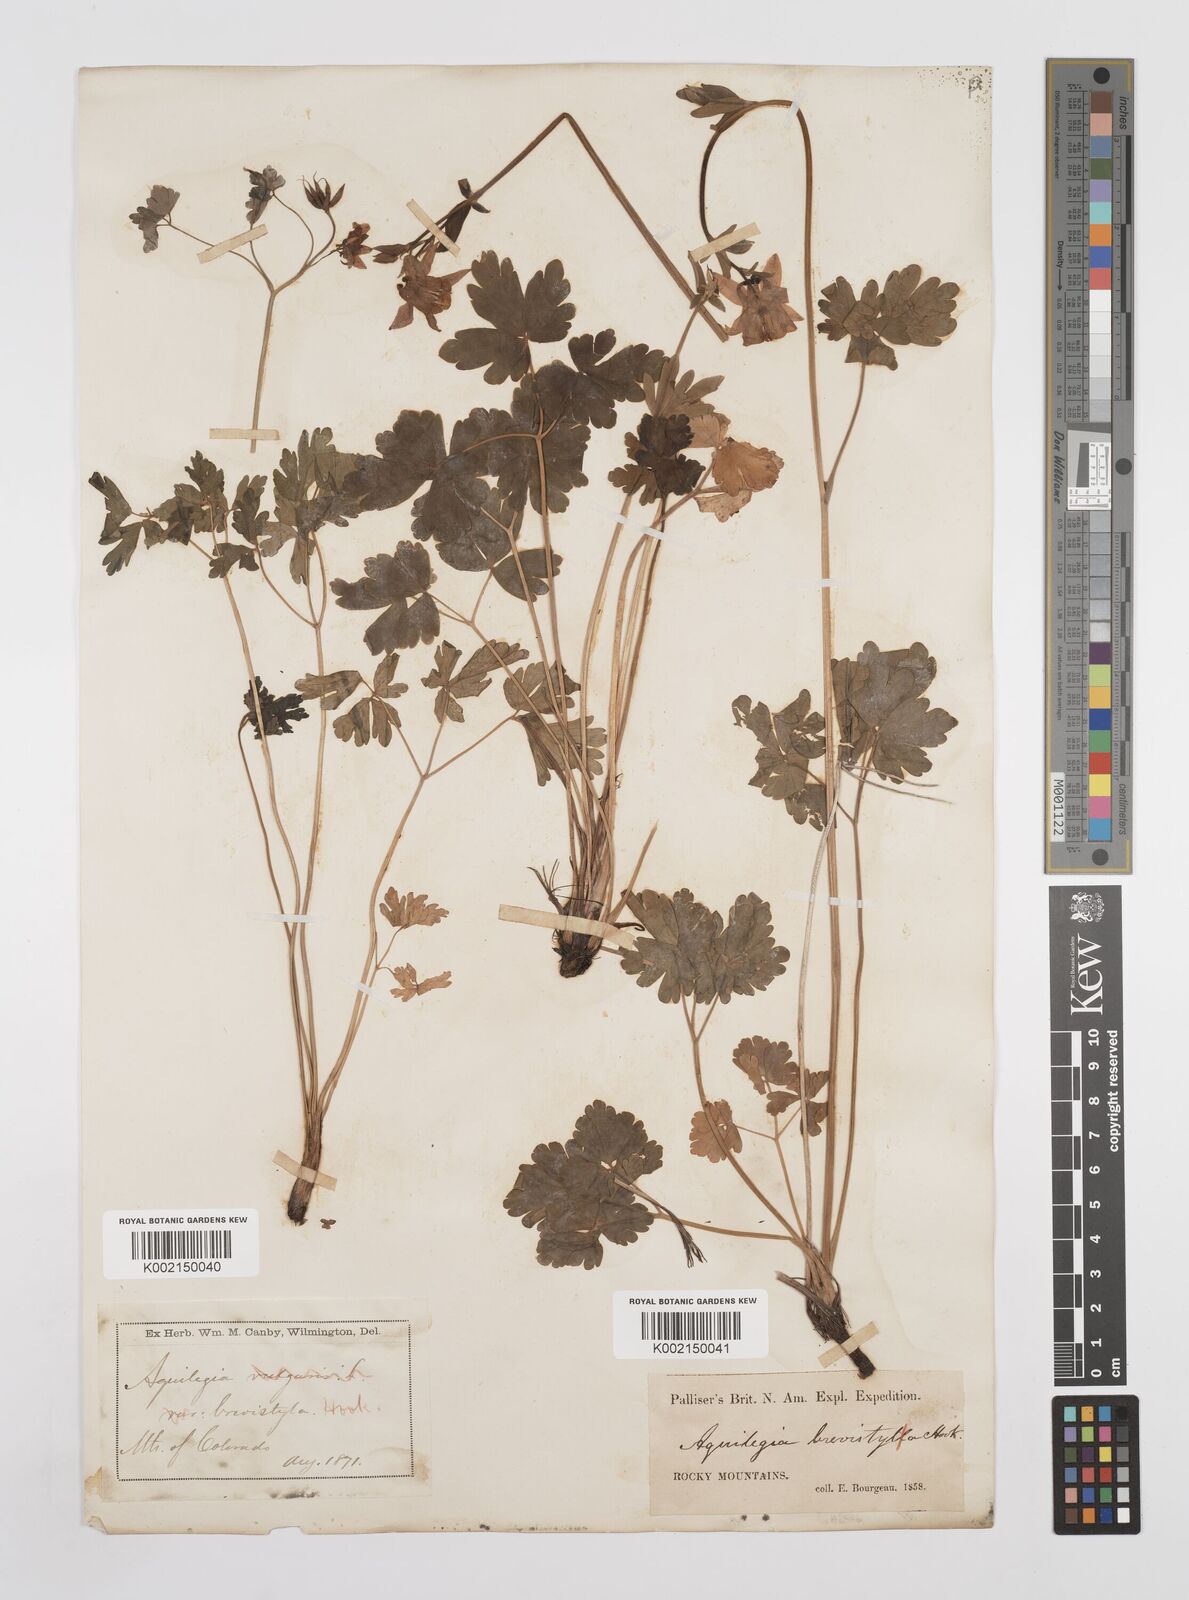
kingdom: Plantae
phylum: Tracheophyta
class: Magnoliopsida
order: Ranunculales
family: Ranunculaceae
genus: Aquilegia
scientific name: Aquilegia brevistyla
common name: Yukon columbine
